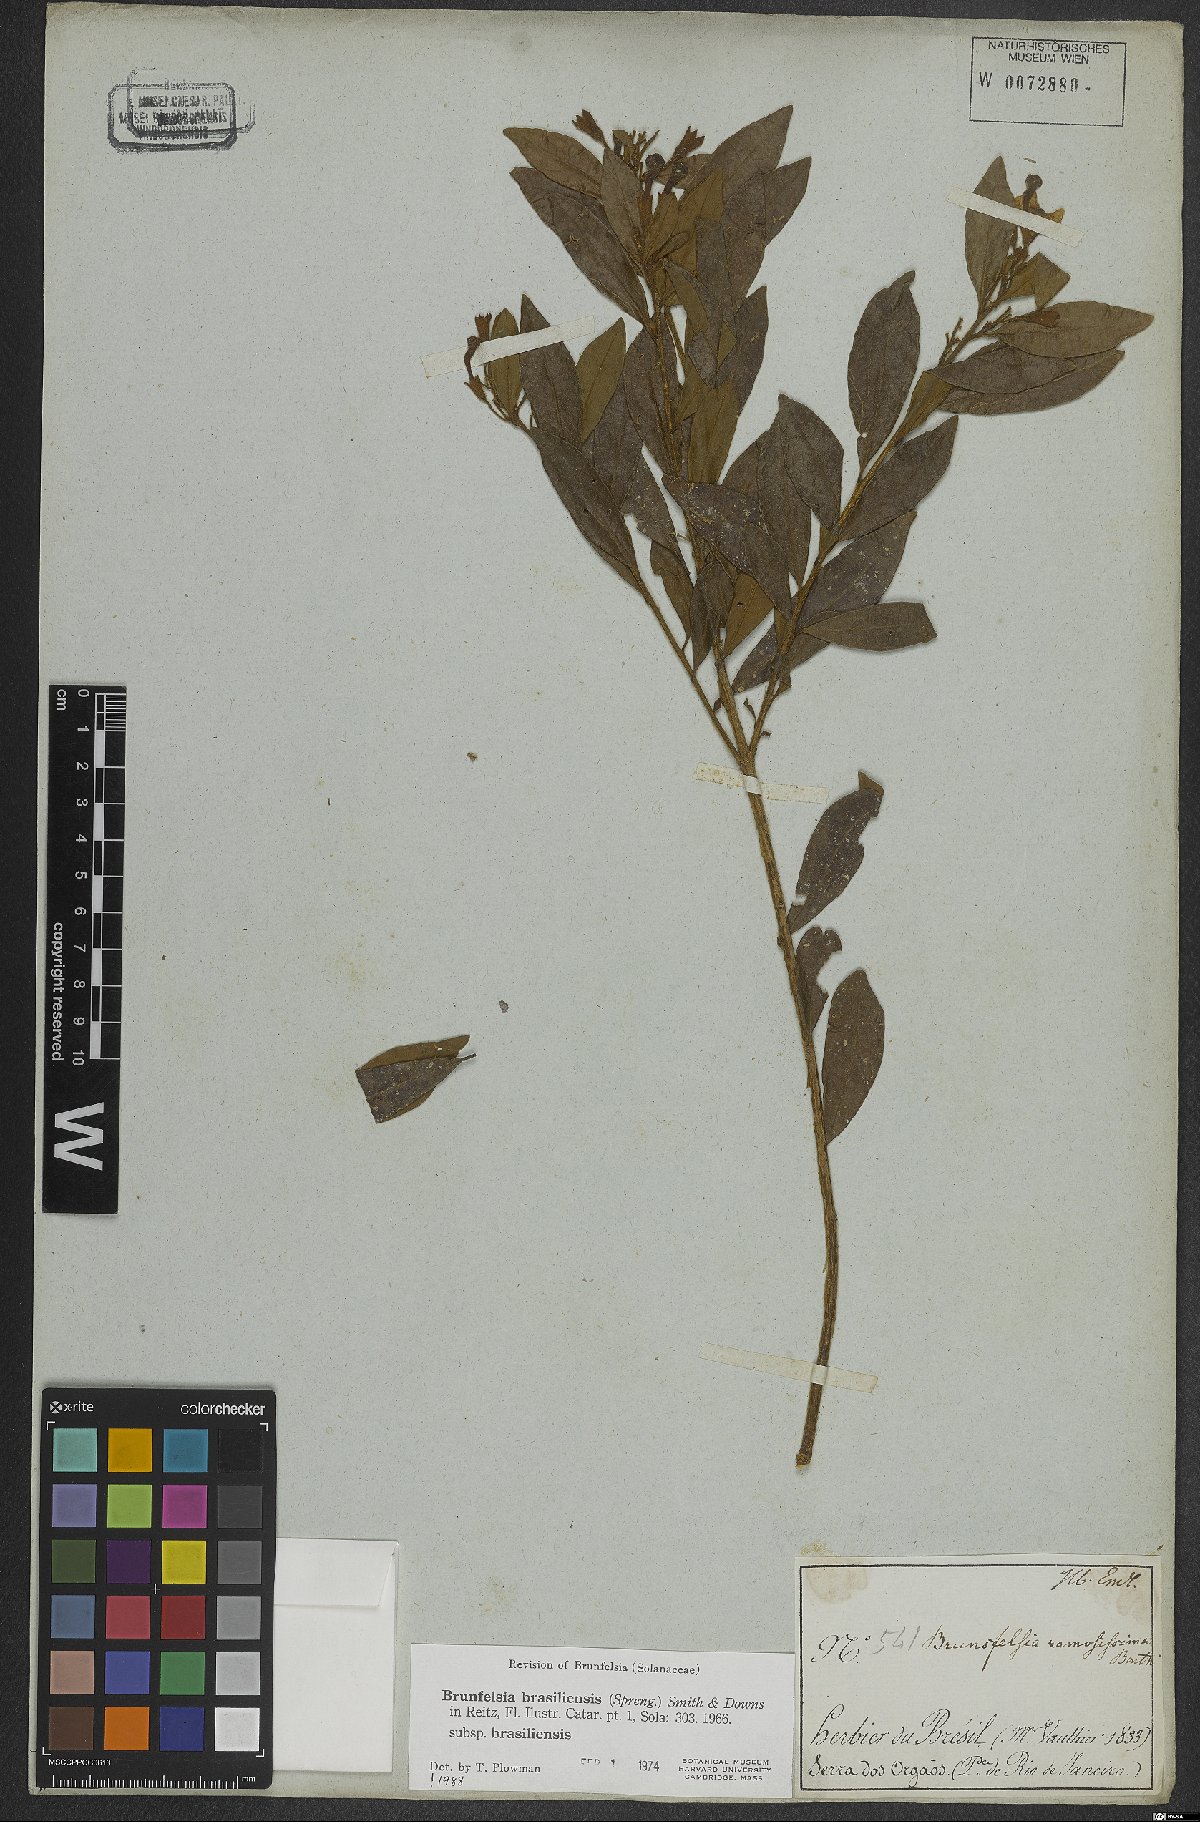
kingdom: Plantae
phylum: Tracheophyta
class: Magnoliopsida
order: Solanales
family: Solanaceae
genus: Brunfelsia
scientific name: Brunfelsia brasiliensis
